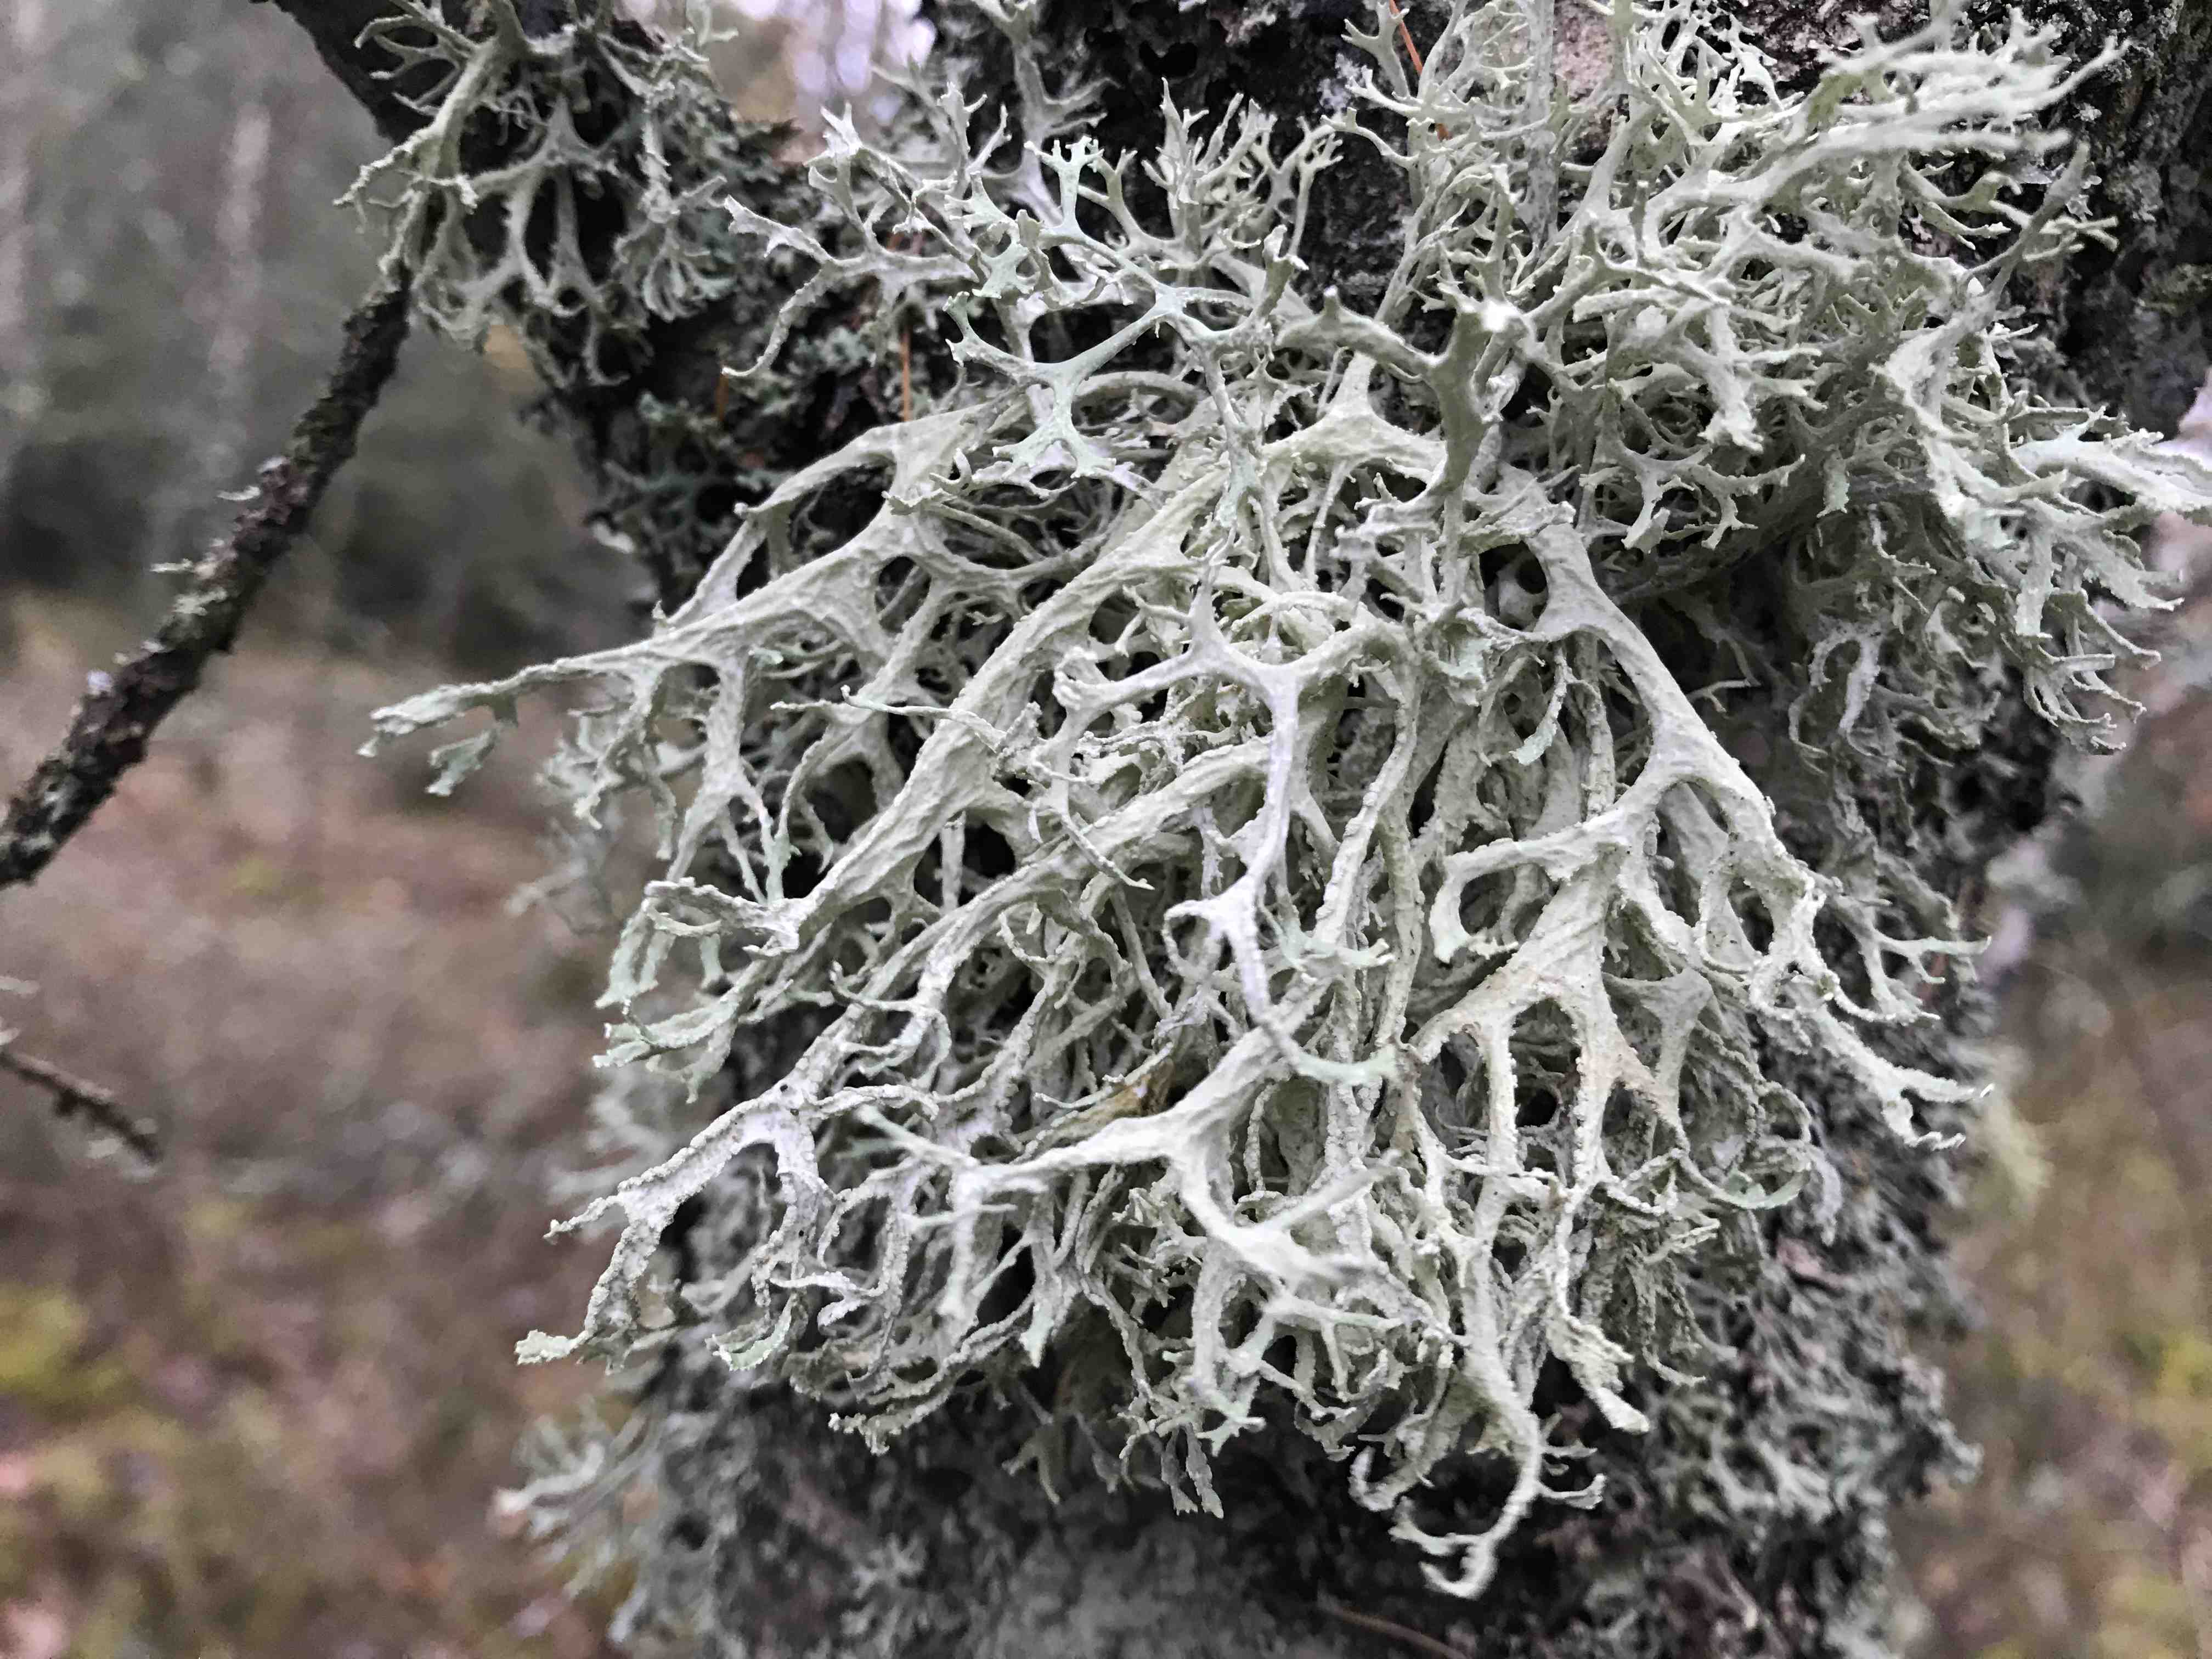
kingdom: Fungi
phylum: Ascomycota
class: Lecanoromycetes
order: Lecanorales
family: Parmeliaceae
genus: Evernia
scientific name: Evernia prunastri
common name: almindelig slåenlav
